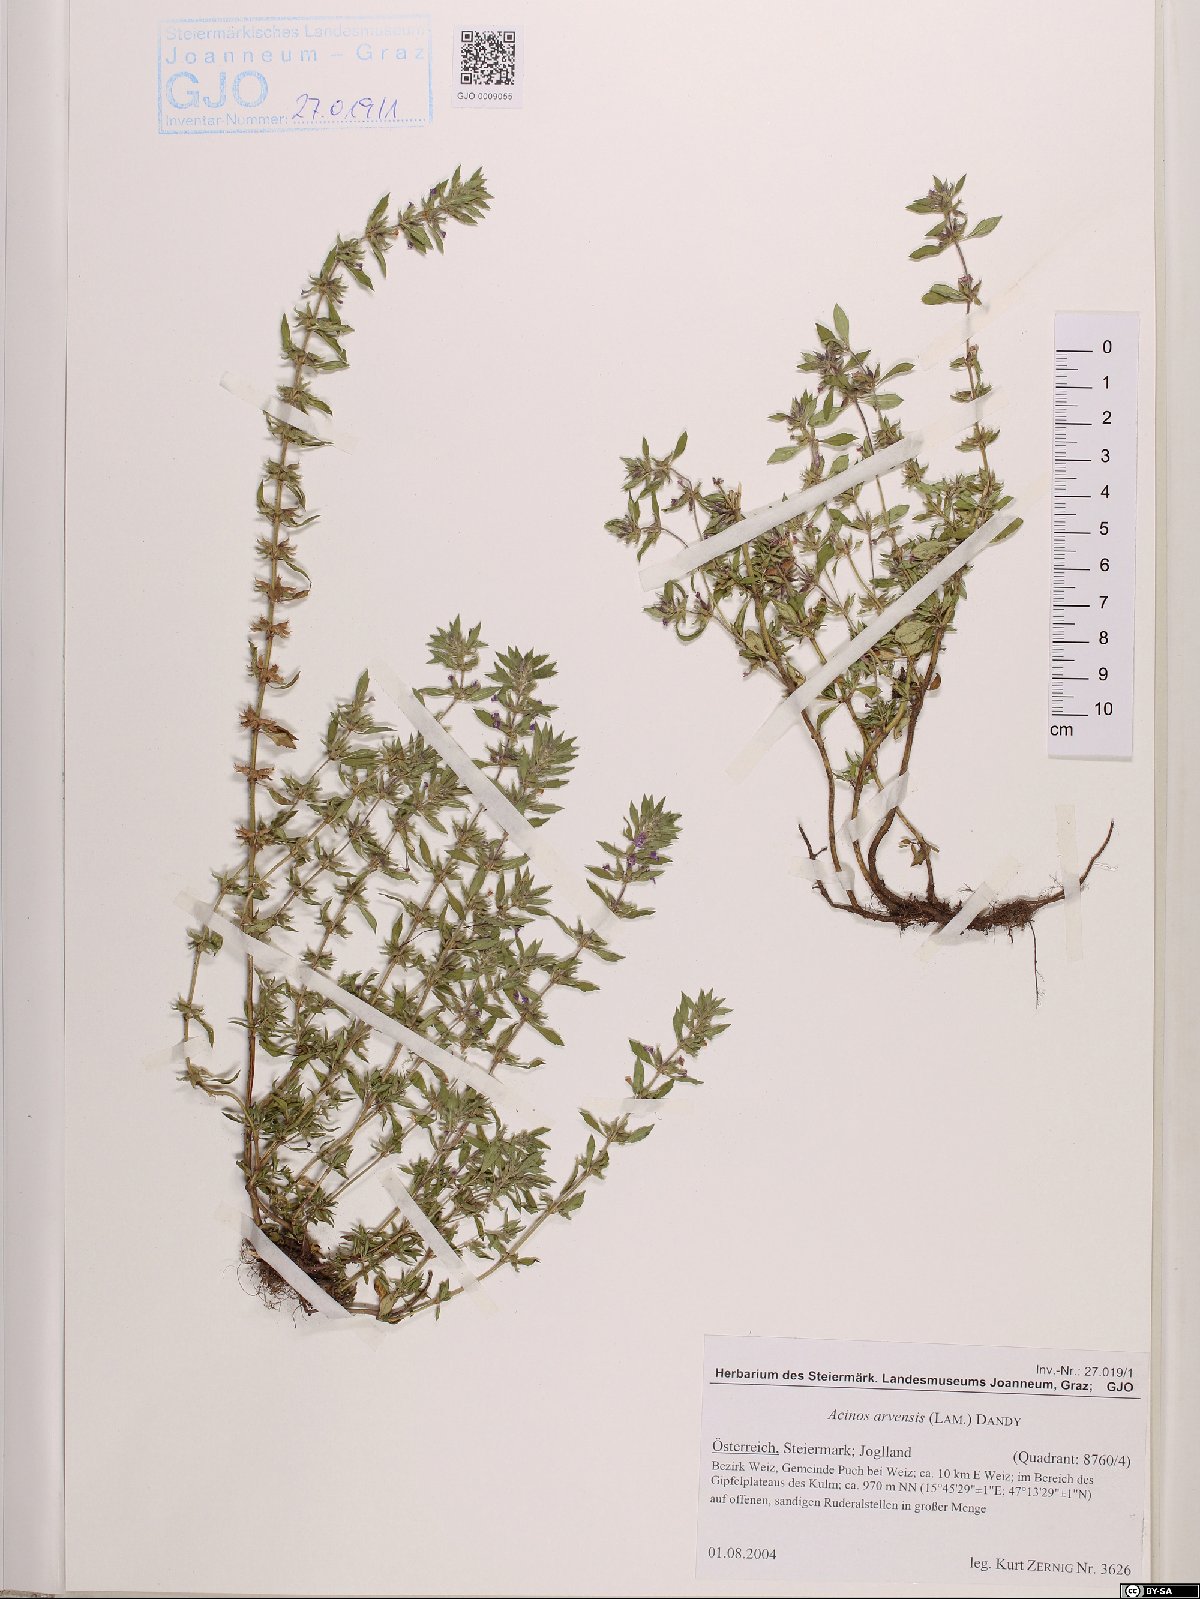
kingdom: Plantae
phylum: Tracheophyta
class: Magnoliopsida
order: Lamiales
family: Lamiaceae
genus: Clinopodium
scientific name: Clinopodium acinos
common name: Basil thyme
